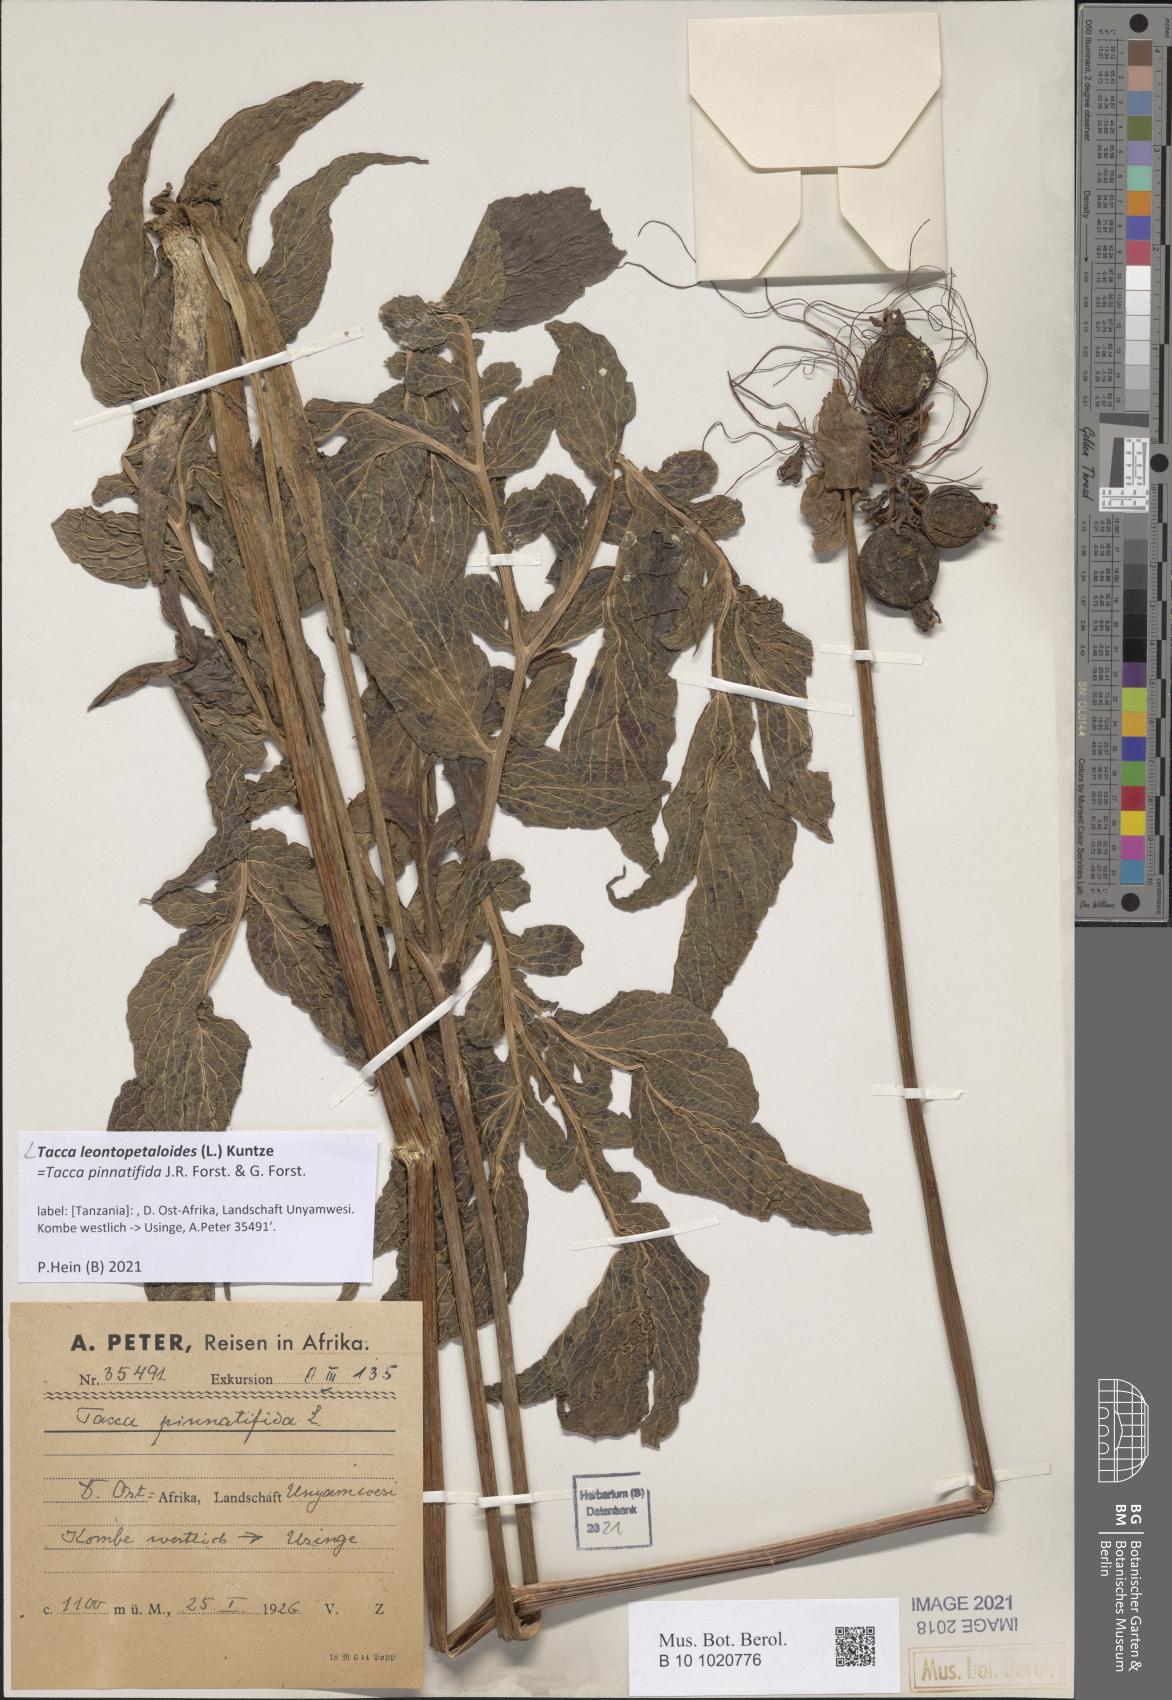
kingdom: Plantae
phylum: Tracheophyta
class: Liliopsida
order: Dioscoreales
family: Dioscoreaceae
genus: Tacca
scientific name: Tacca leontopetaloides
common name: Arrowroot
